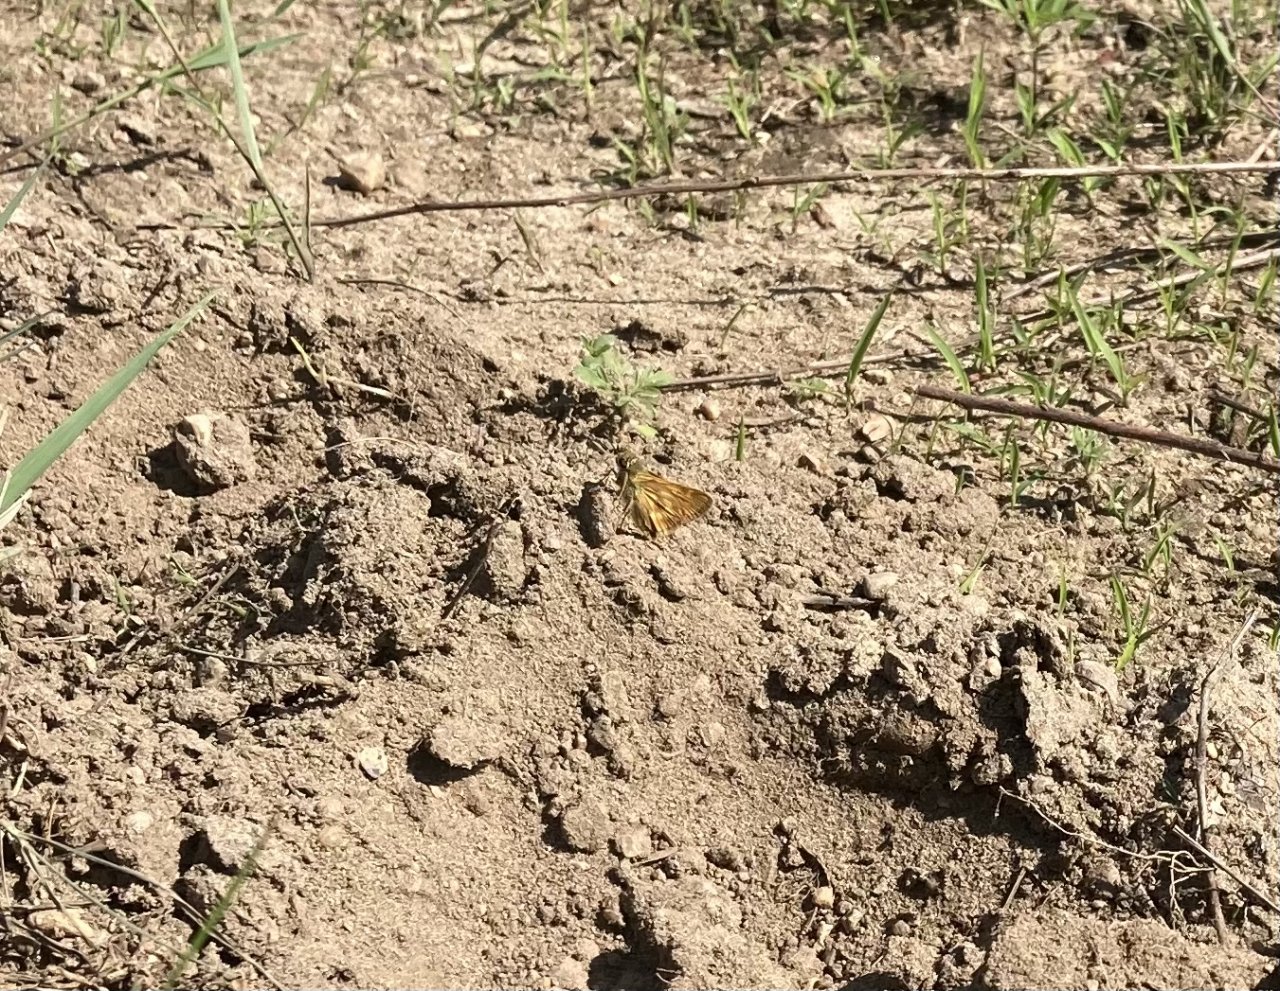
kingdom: Animalia
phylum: Arthropoda
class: Insecta
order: Lepidoptera
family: Hesperiidae
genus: Hesperia
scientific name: Hesperia sassacus
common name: Sassacus Skipper
